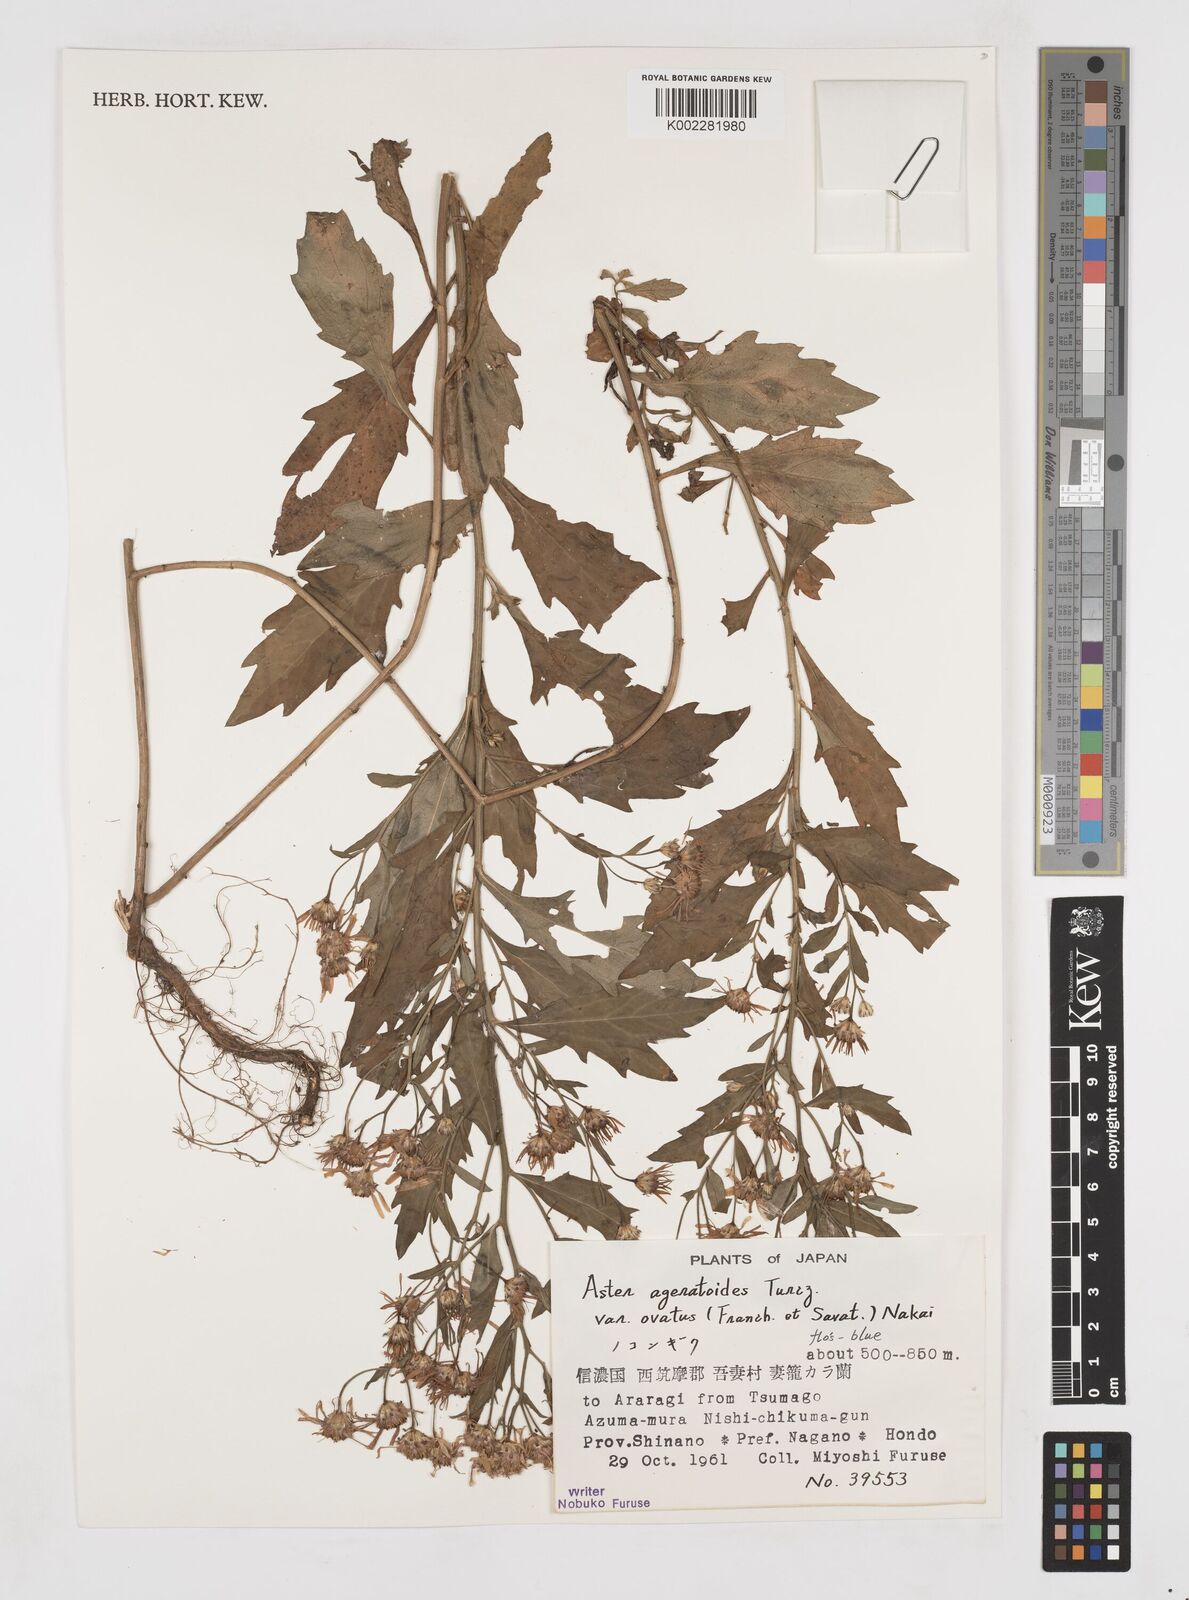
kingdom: Plantae
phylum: Tracheophyta
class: Magnoliopsida
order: Asterales
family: Asteraceae
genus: Aster
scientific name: Aster trinervius
